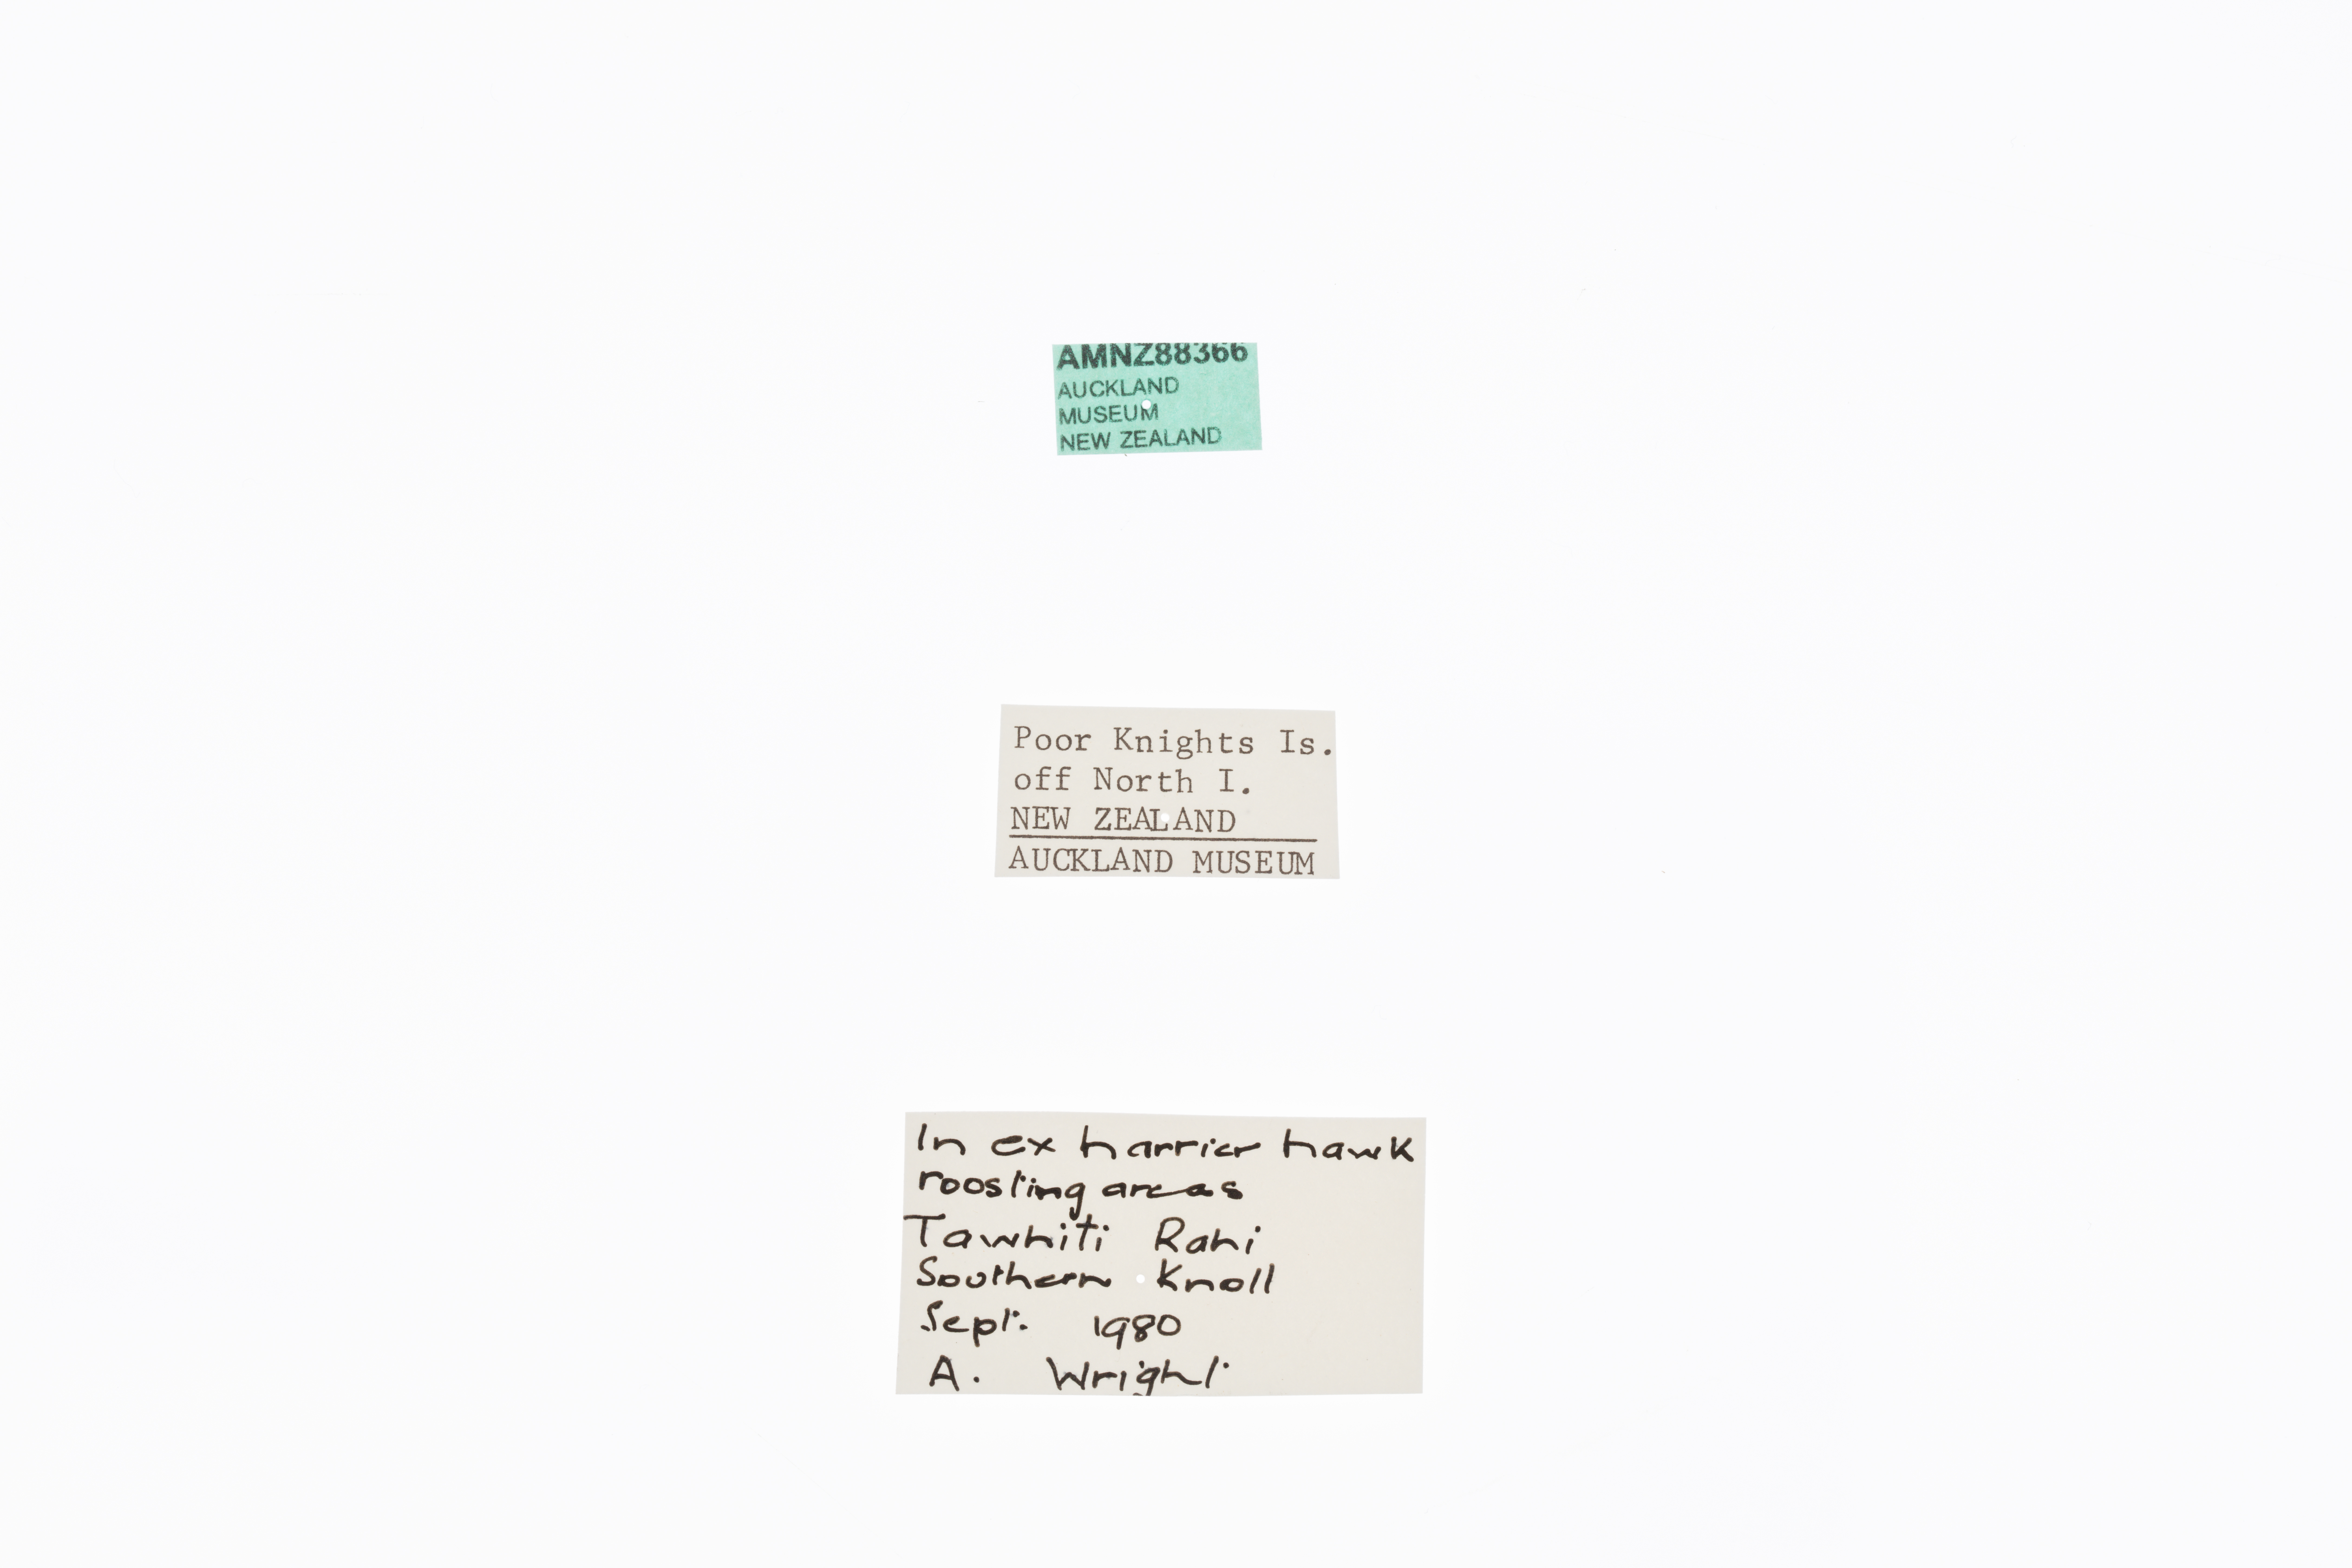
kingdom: Animalia
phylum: Arthropoda
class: Insecta
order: Orthoptera
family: Anostostomatidae
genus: Deinacrida
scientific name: Deinacrida fallai
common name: Poor knights weta
